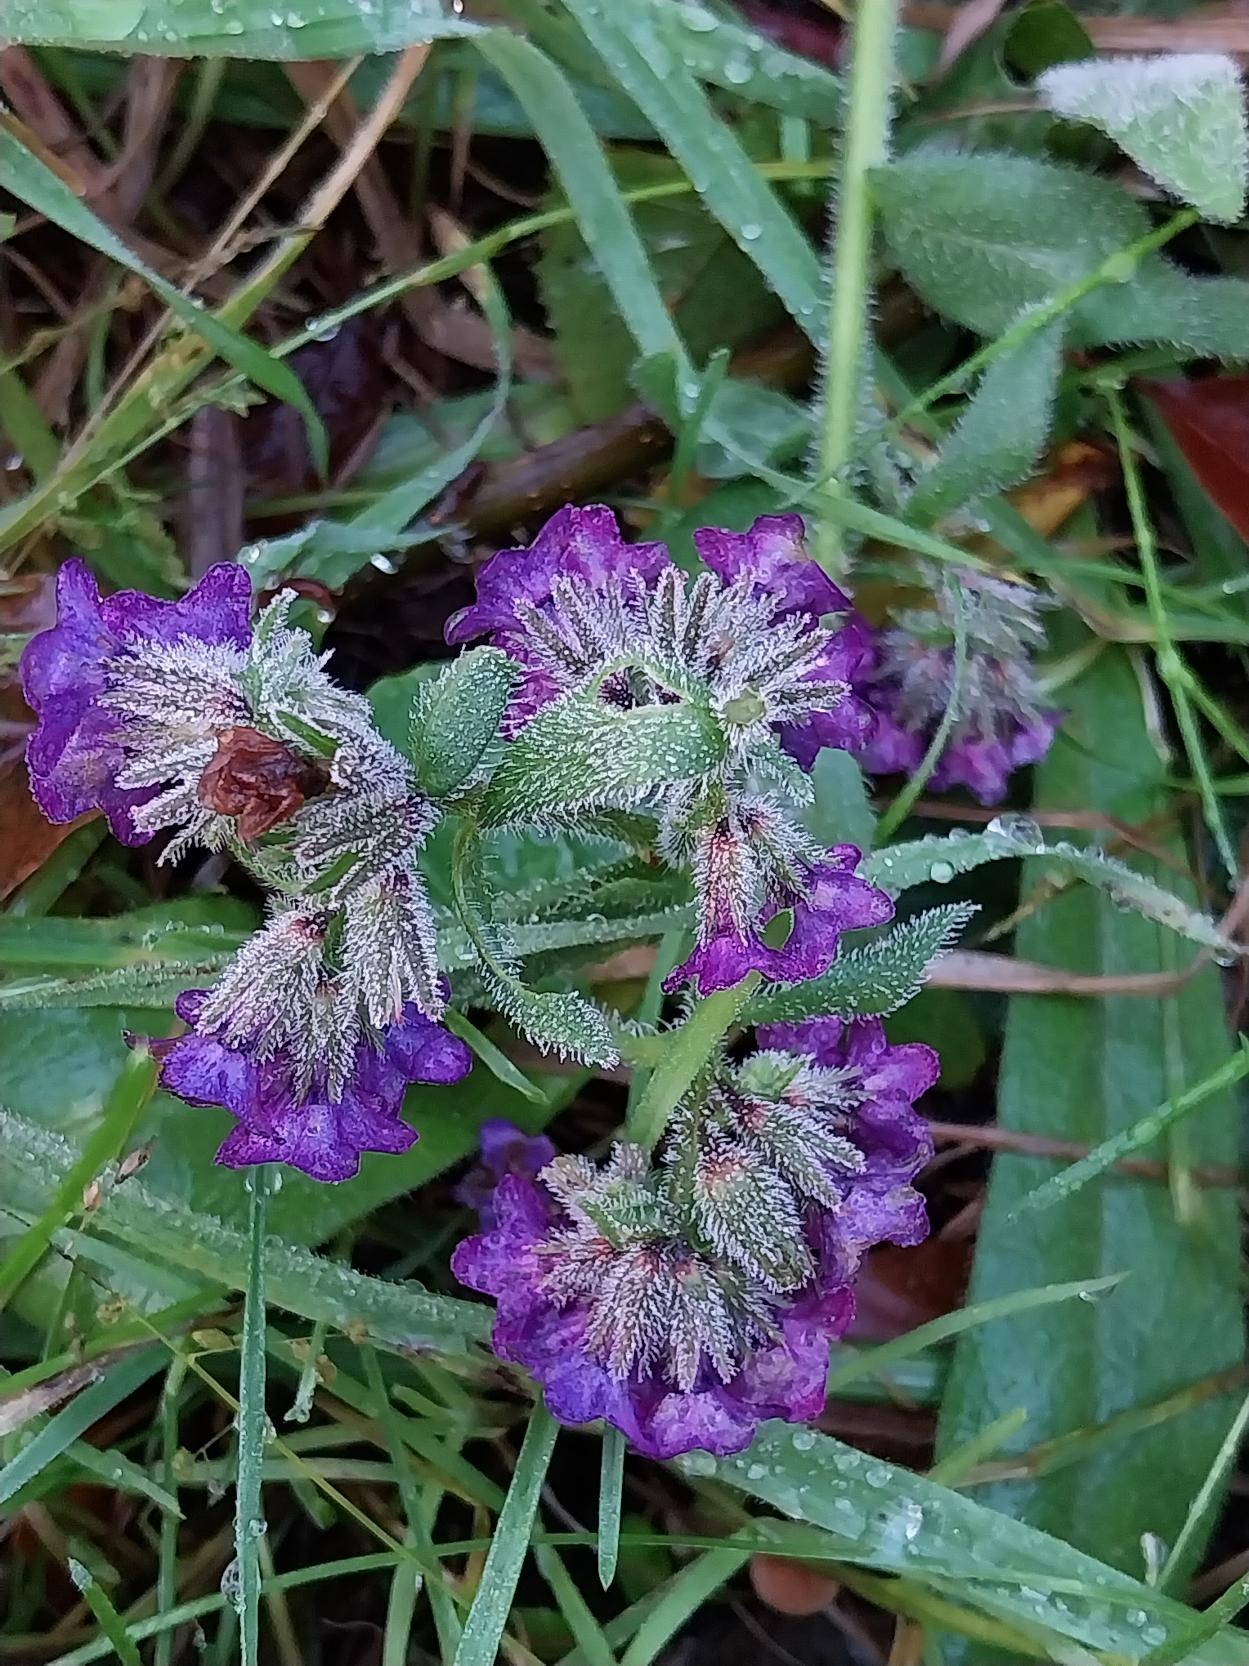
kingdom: Plantae
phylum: Tracheophyta
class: Magnoliopsida
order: Boraginales
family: Boraginaceae
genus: Anchusa
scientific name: Anchusa officinalis
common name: Læge-oksetunge
